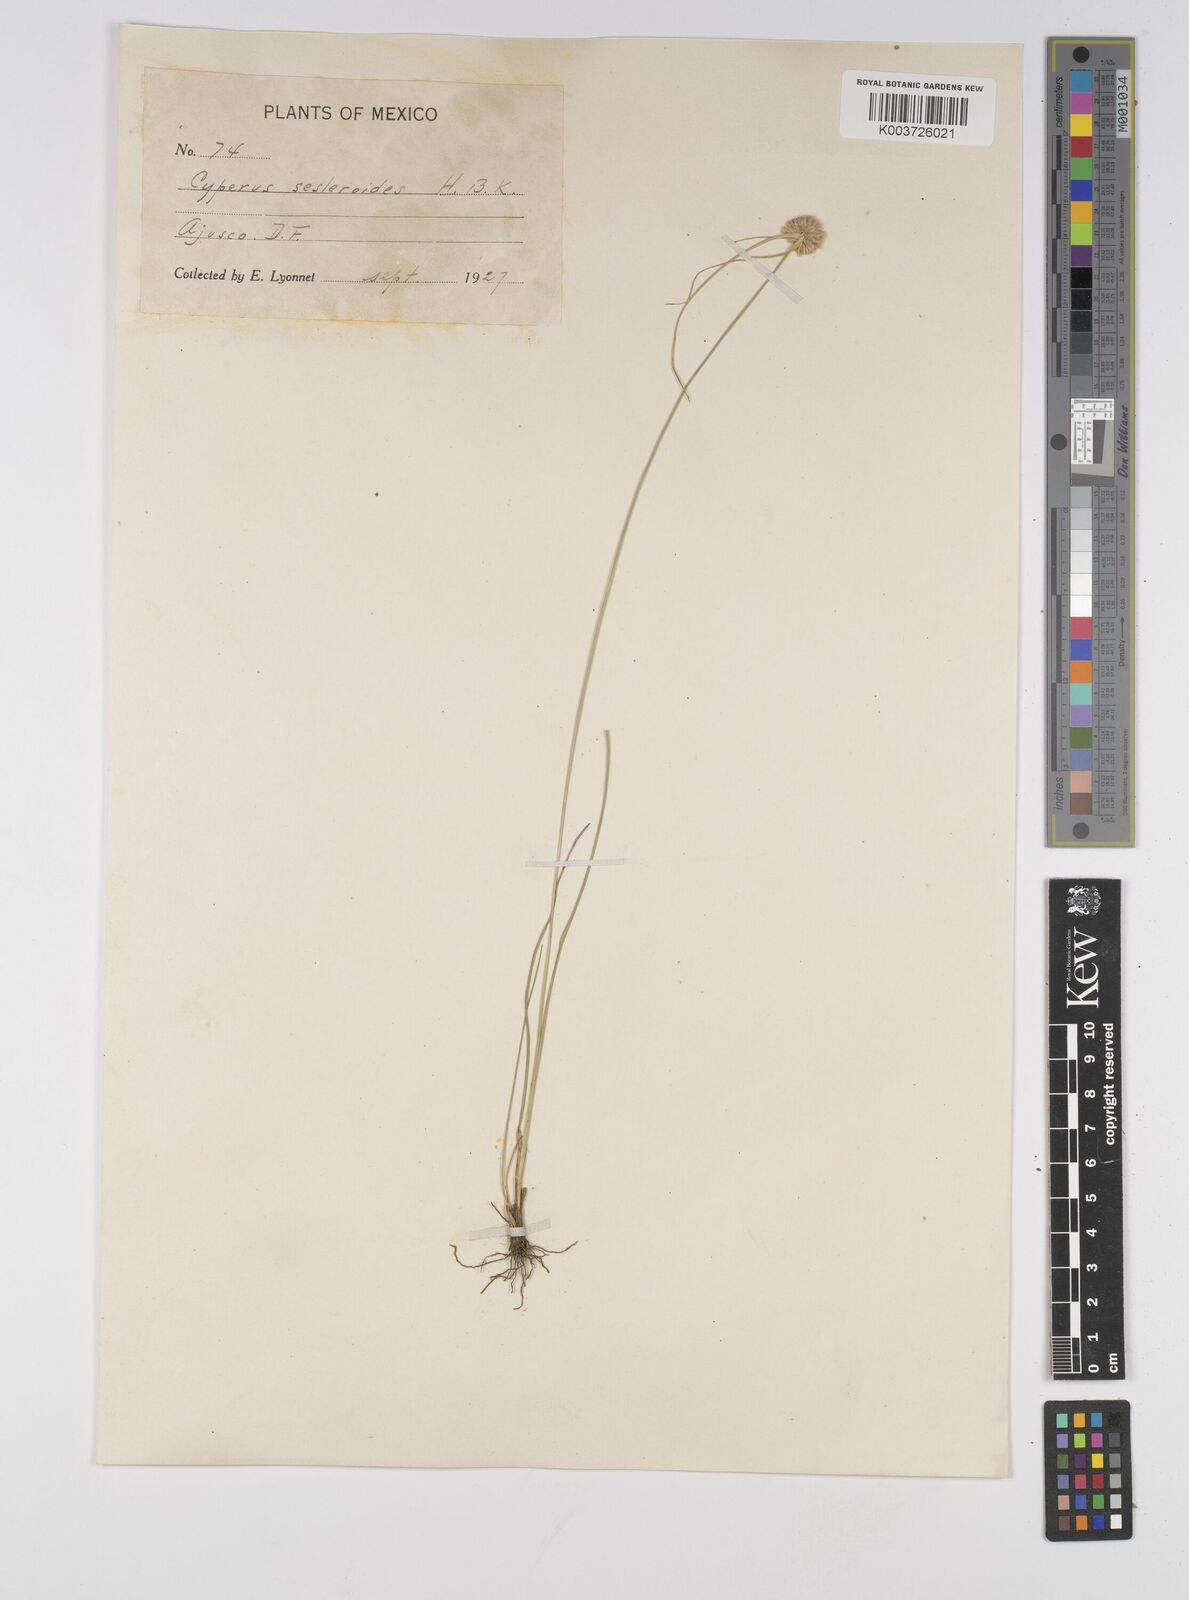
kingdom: Plantae
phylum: Tracheophyta
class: Liliopsida
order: Poales
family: Cyperaceae
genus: Cyperus
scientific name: Cyperus seslerioides
